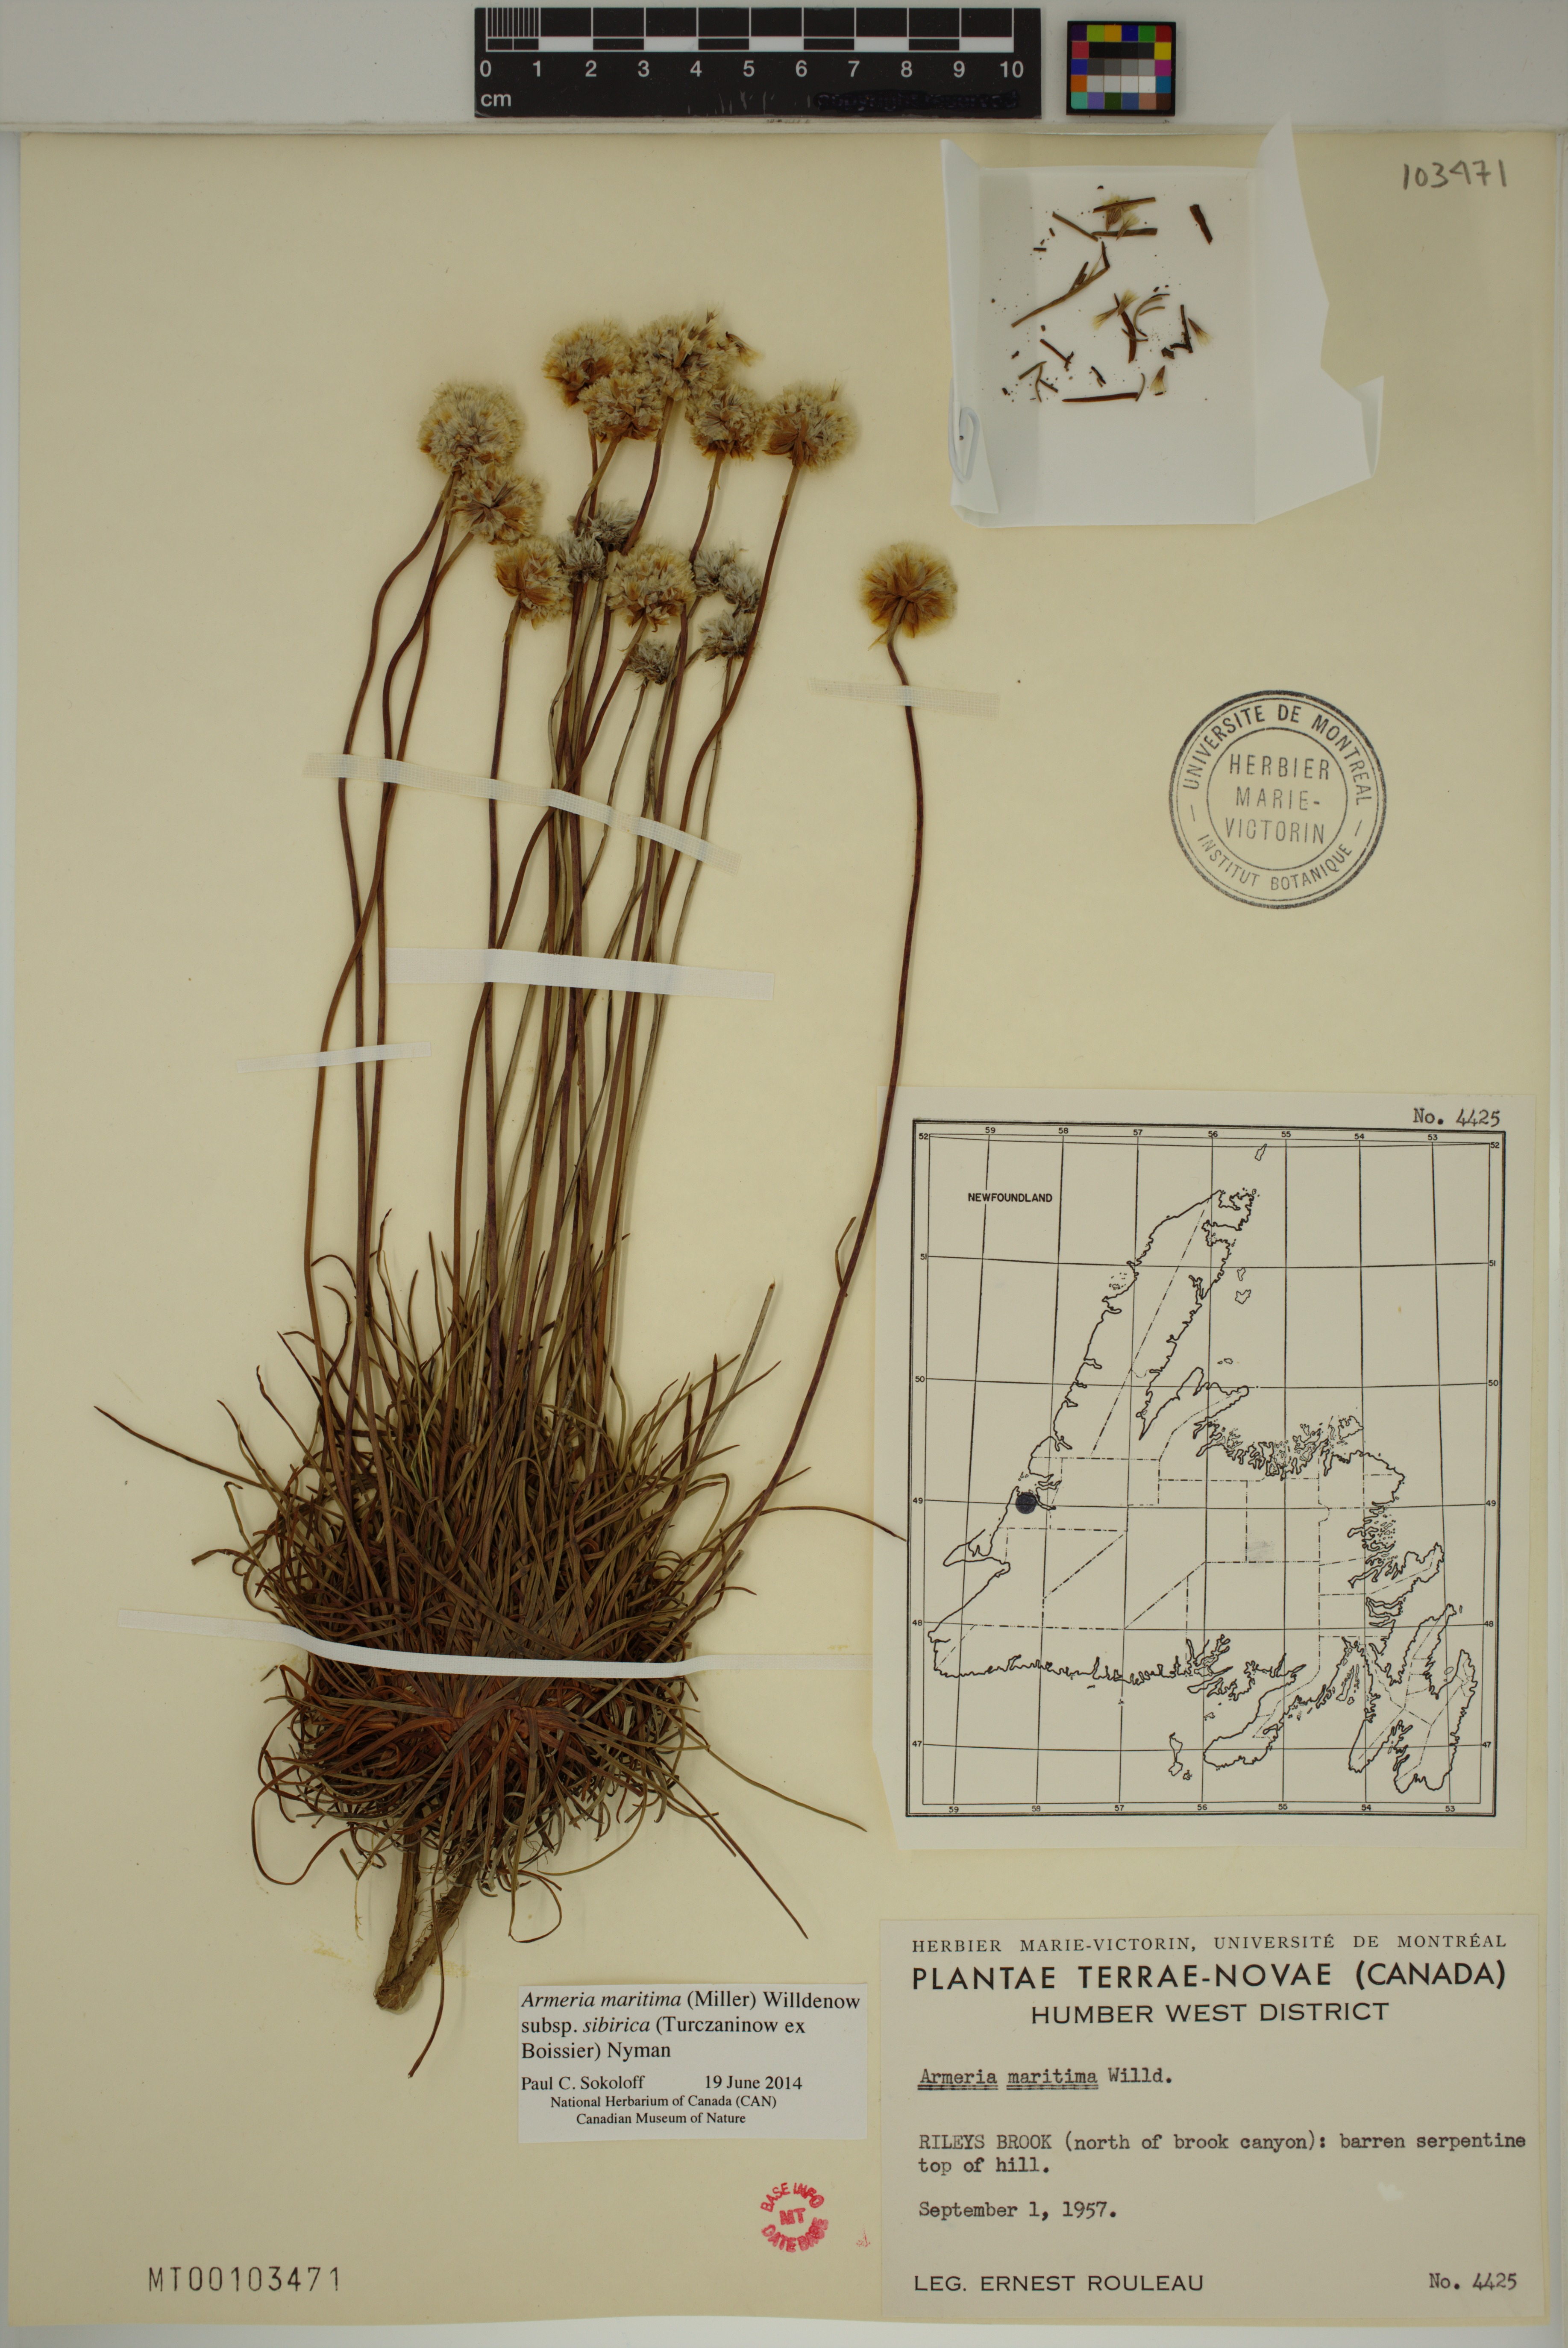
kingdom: Plantae
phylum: Tracheophyta
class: Magnoliopsida
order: Caryophyllales
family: Plumbaginaceae
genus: Armeria
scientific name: Armeria maritima
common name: Thrift
